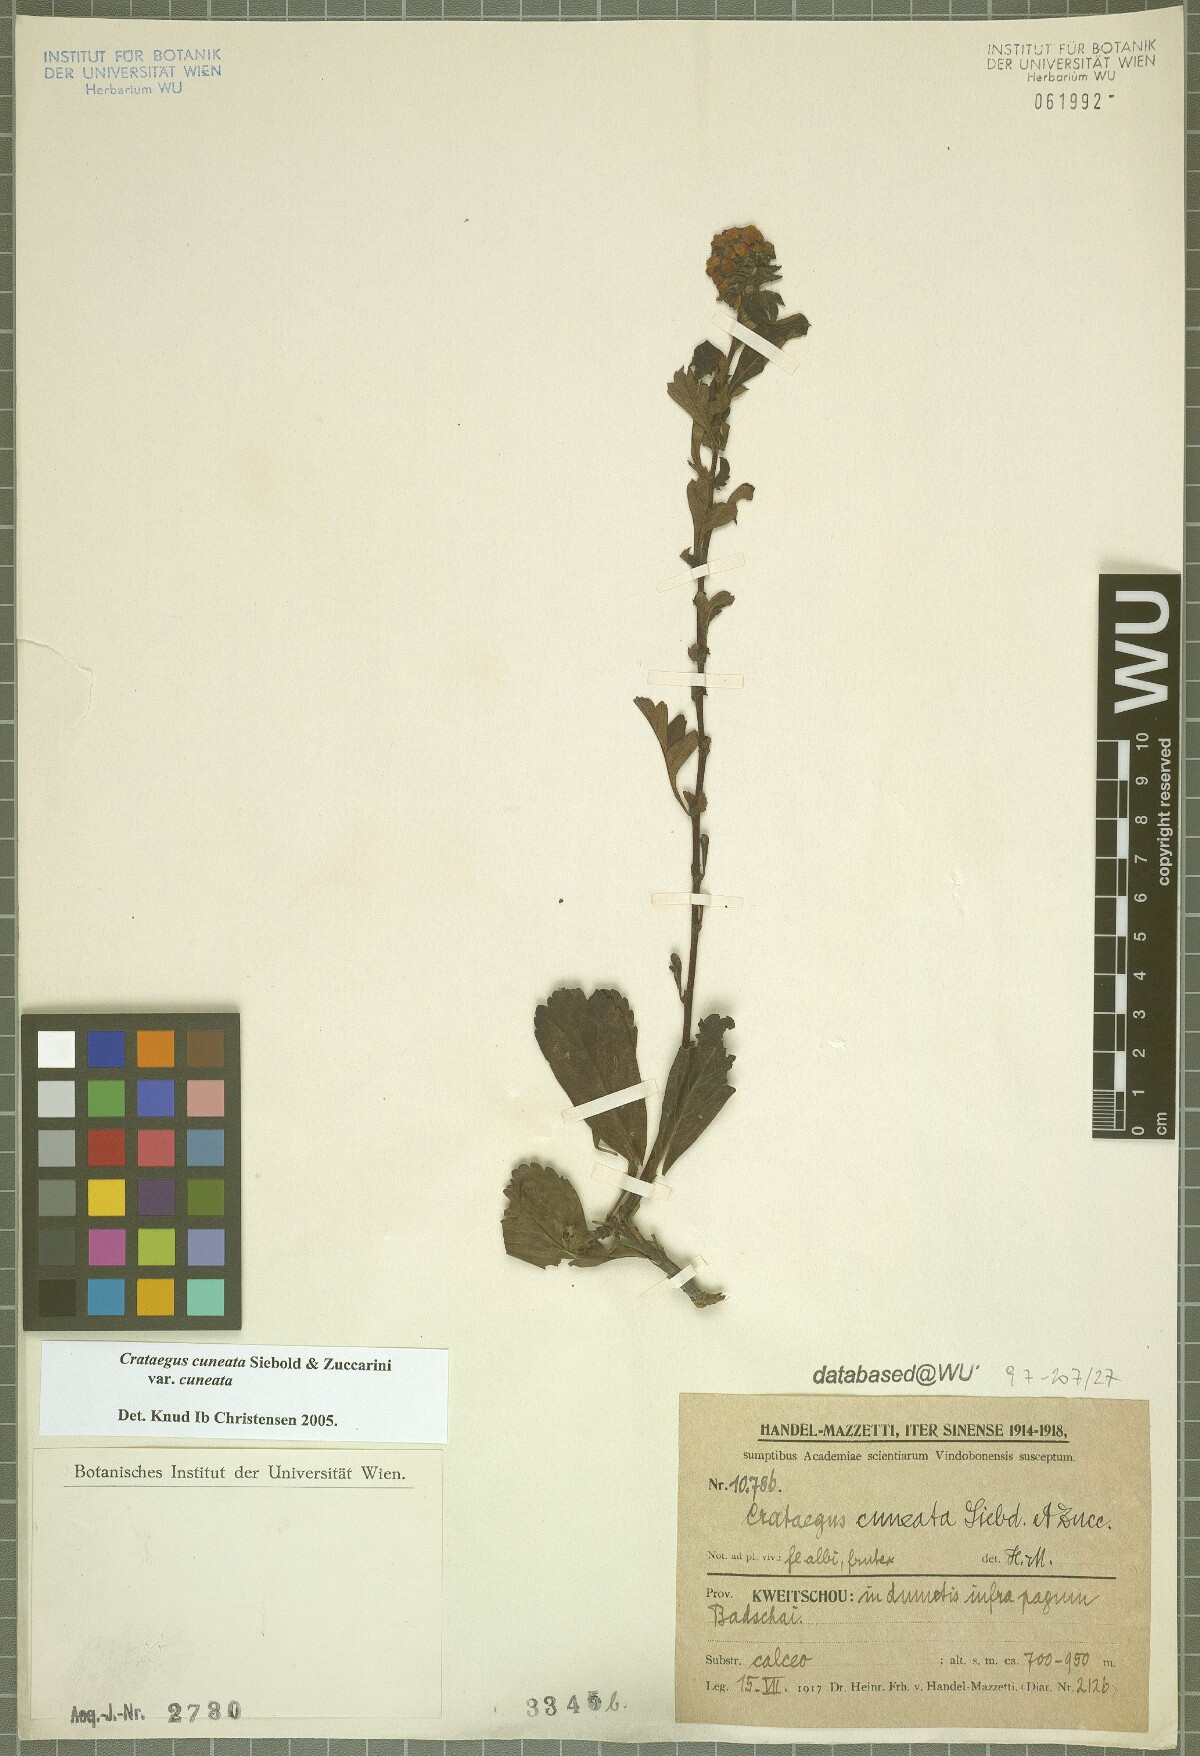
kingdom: Plantae
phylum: Tracheophyta
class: Magnoliopsida
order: Rosales
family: Rosaceae
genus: Crataegus
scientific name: Crataegus cuneata
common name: Chinese hawthorn
